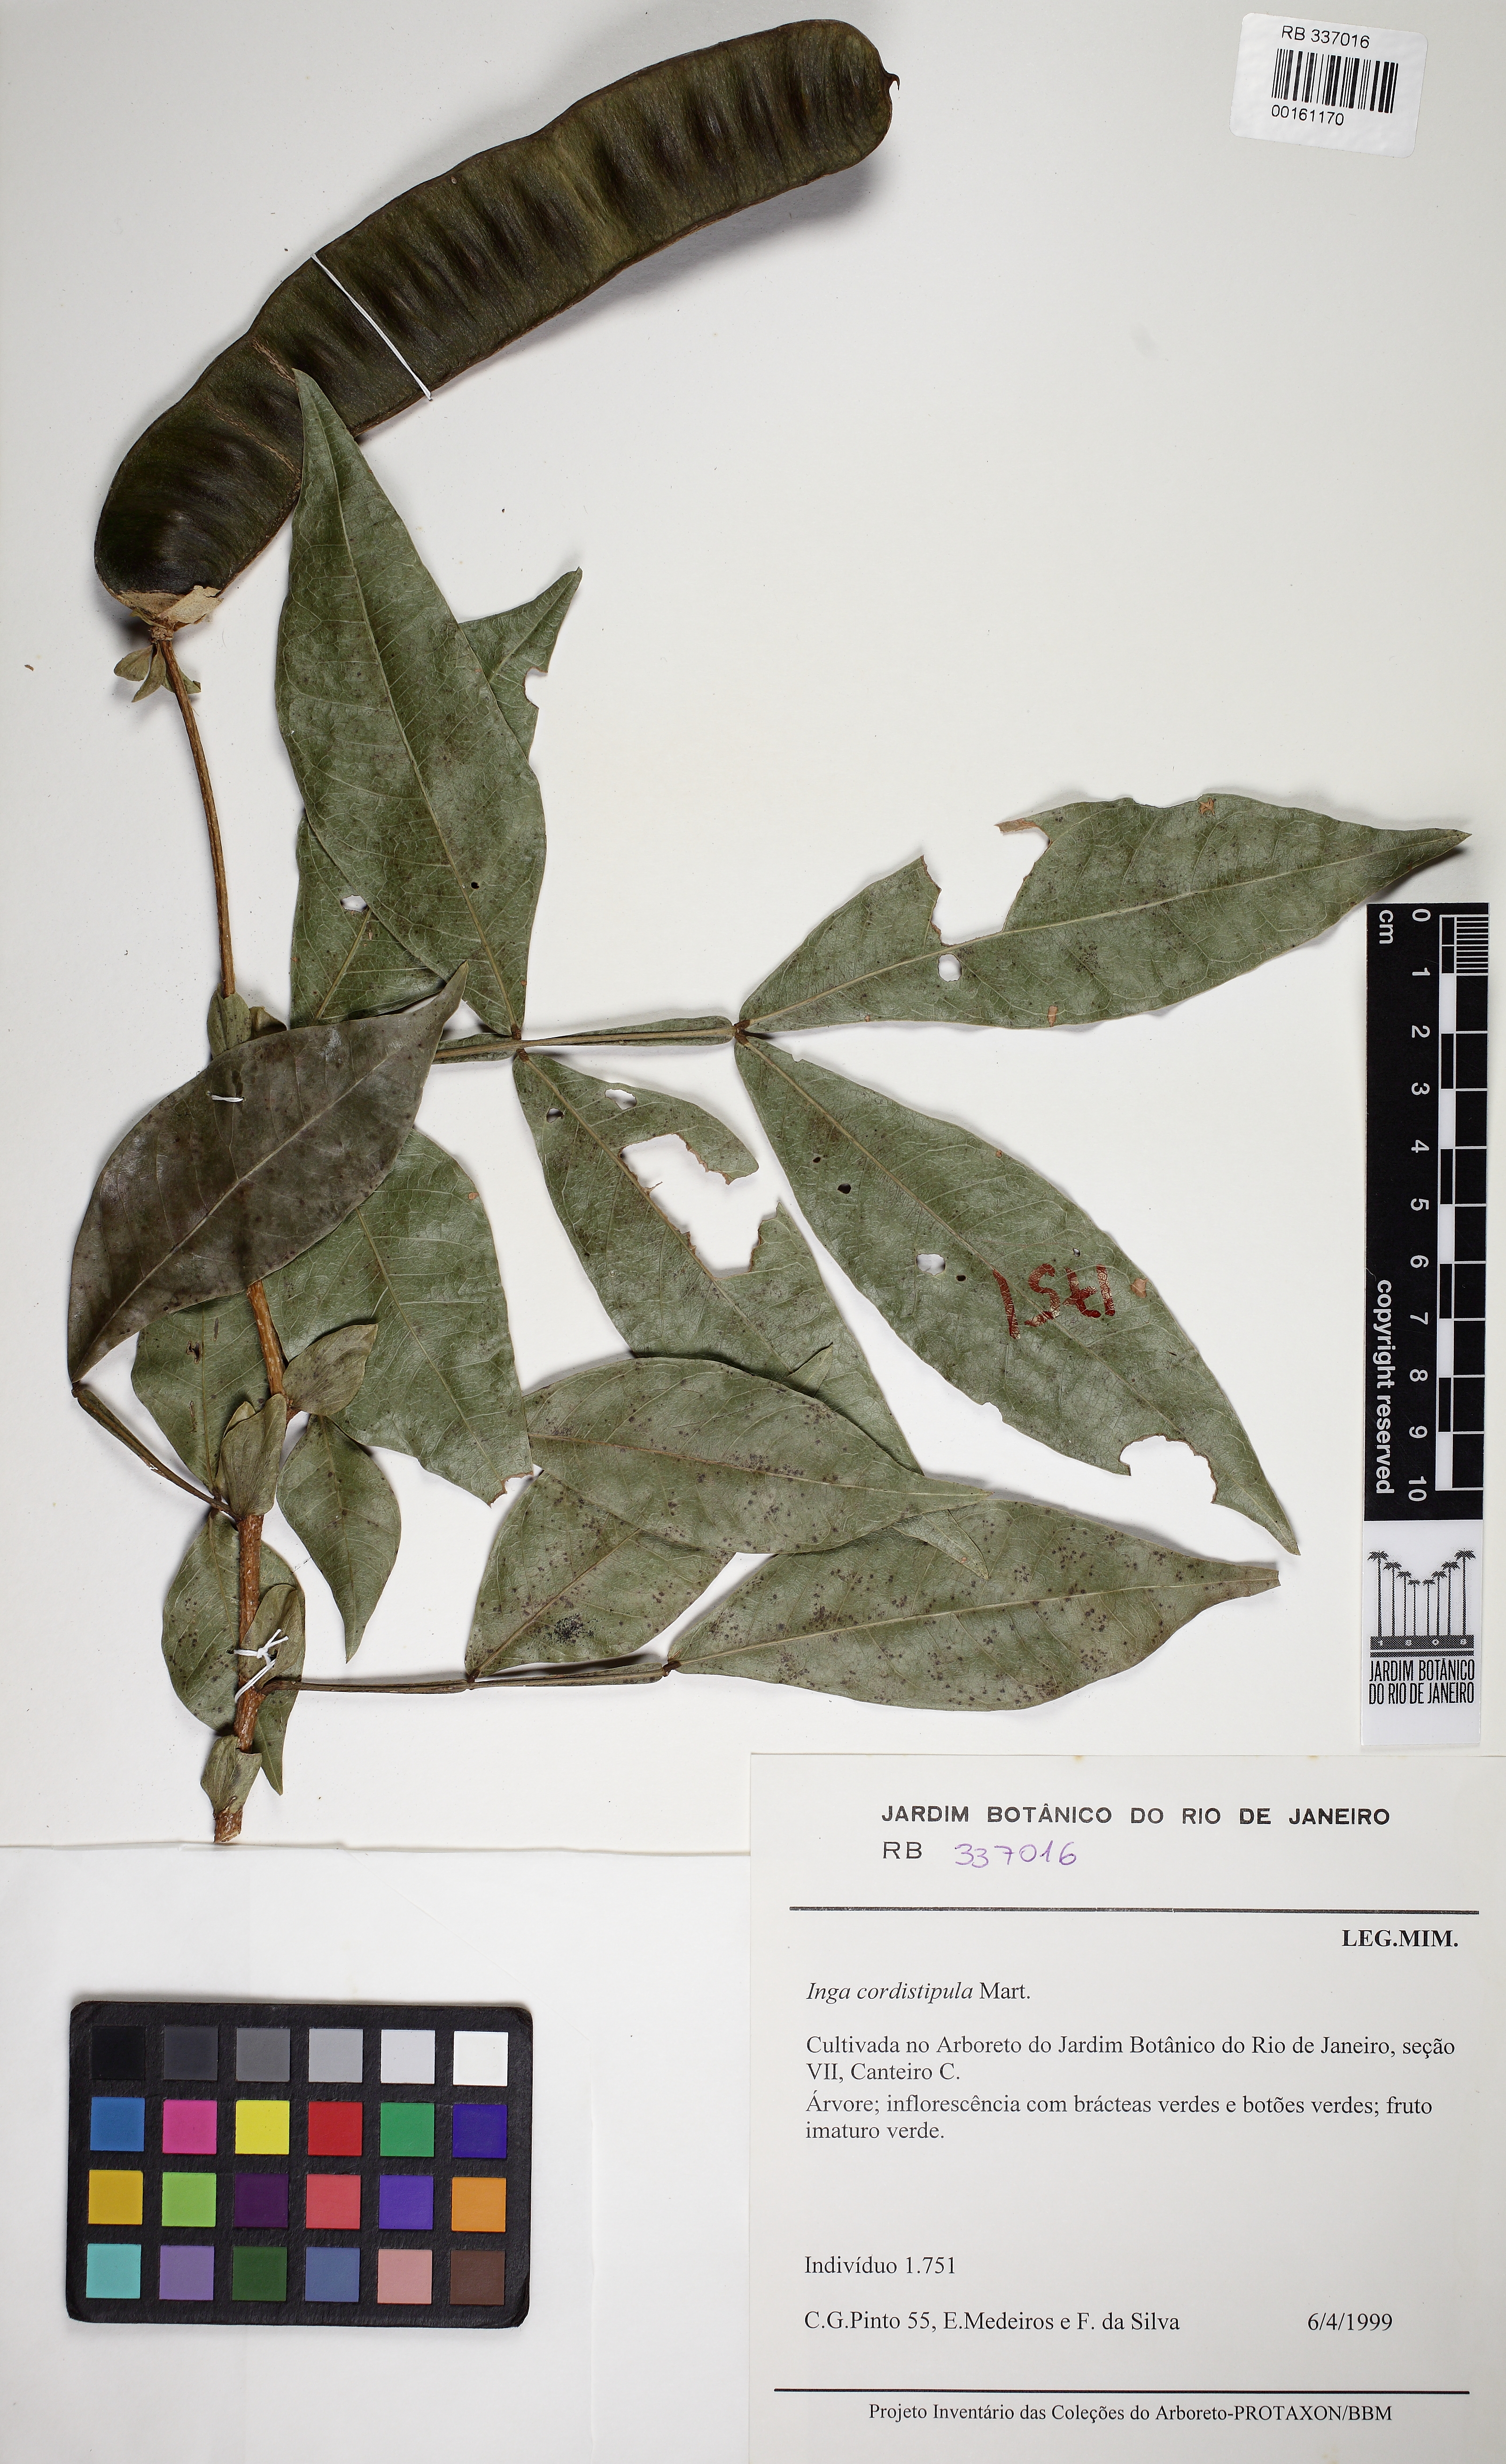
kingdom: Plantae
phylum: Tracheophyta
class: Magnoliopsida
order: Fabales
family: Fabaceae
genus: Inga
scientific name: Inga cordistipula
